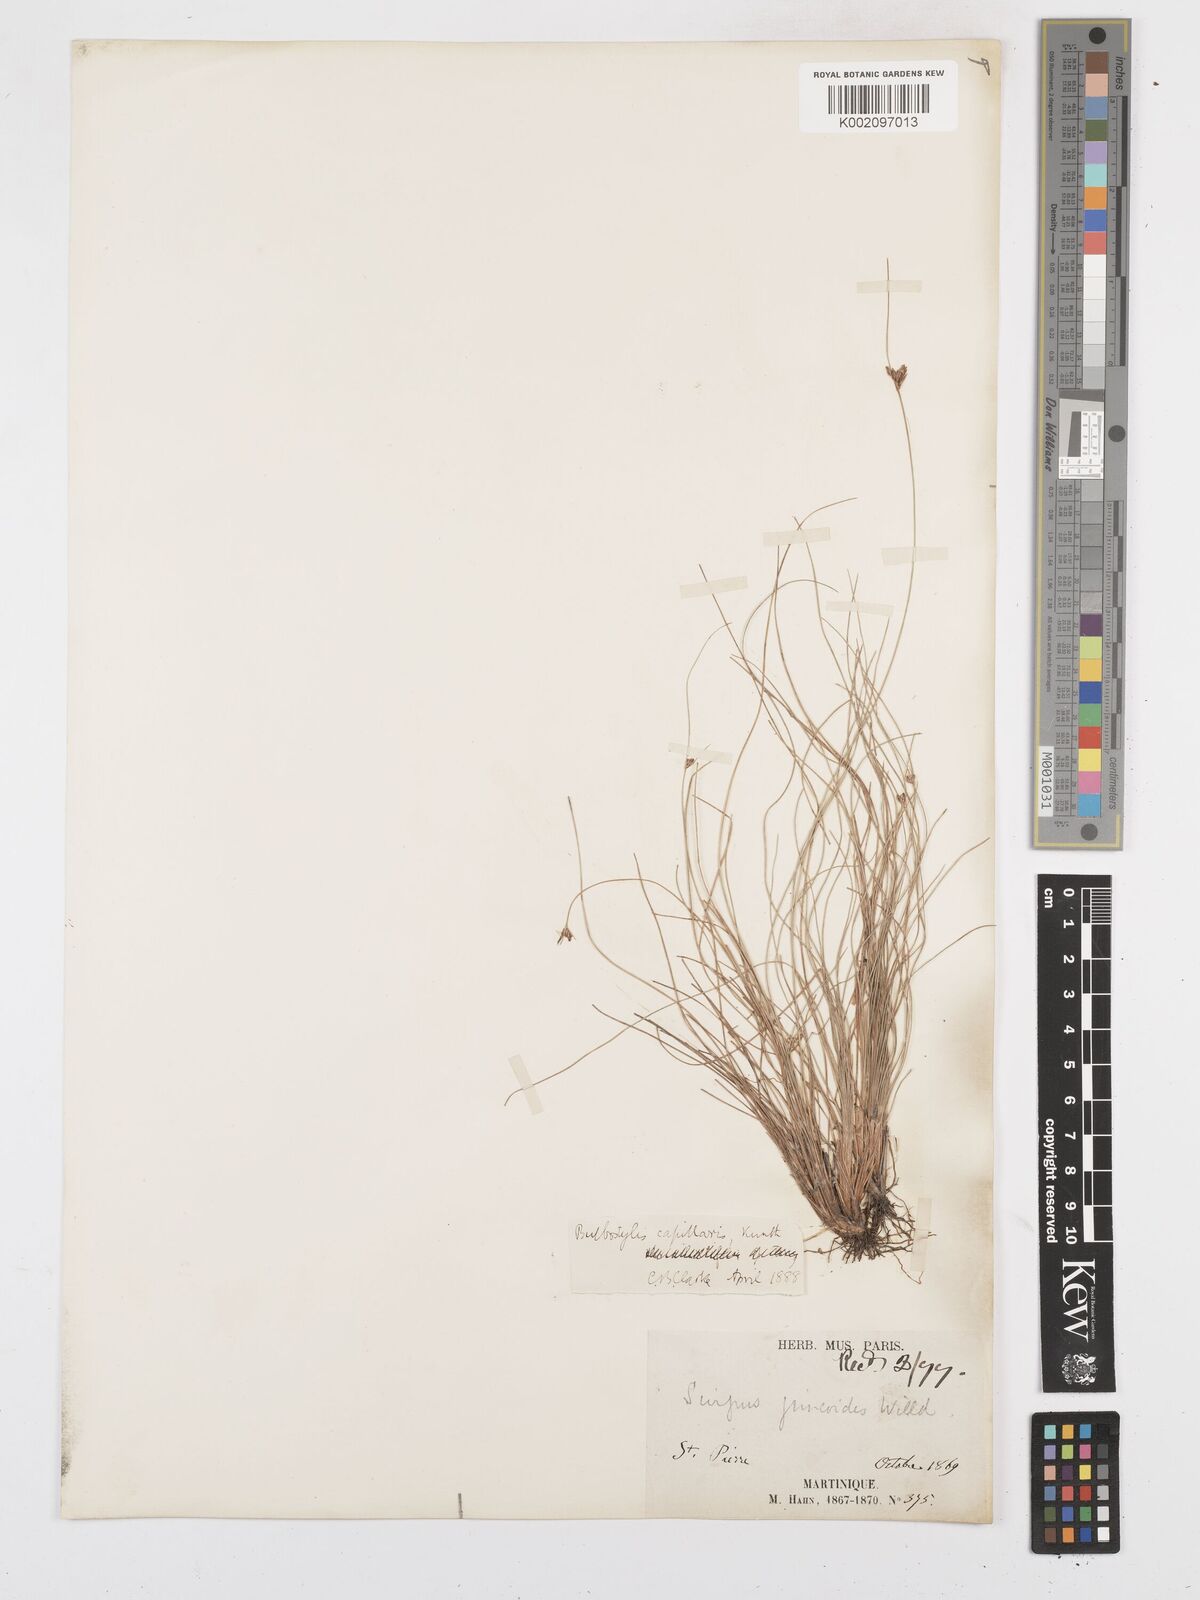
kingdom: Plantae
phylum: Tracheophyta
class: Liliopsida
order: Poales
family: Cyperaceae
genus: Bulbostylis
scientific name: Bulbostylis capillaris
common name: Densetuft hairsedge
